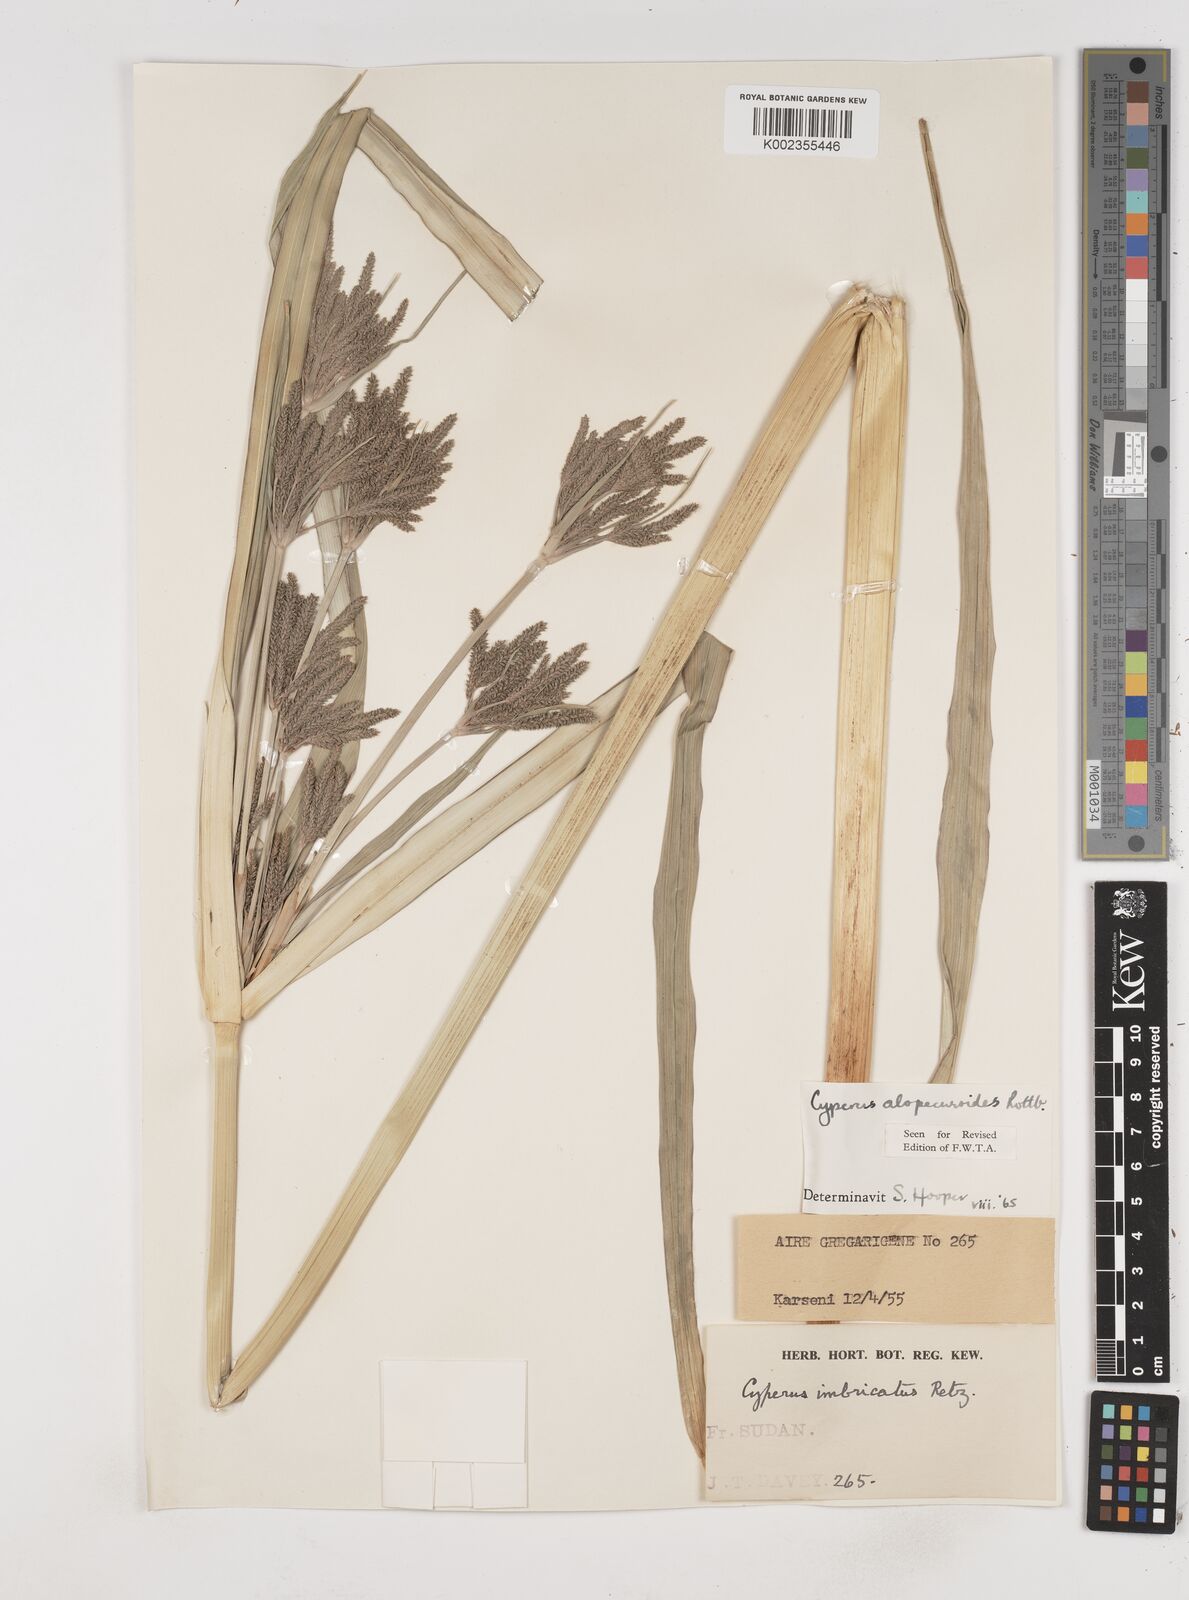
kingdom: Plantae
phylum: Tracheophyta
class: Liliopsida
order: Poales
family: Cyperaceae
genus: Cyperus
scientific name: Cyperus alopecuroides
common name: Foxtail flatsedge
